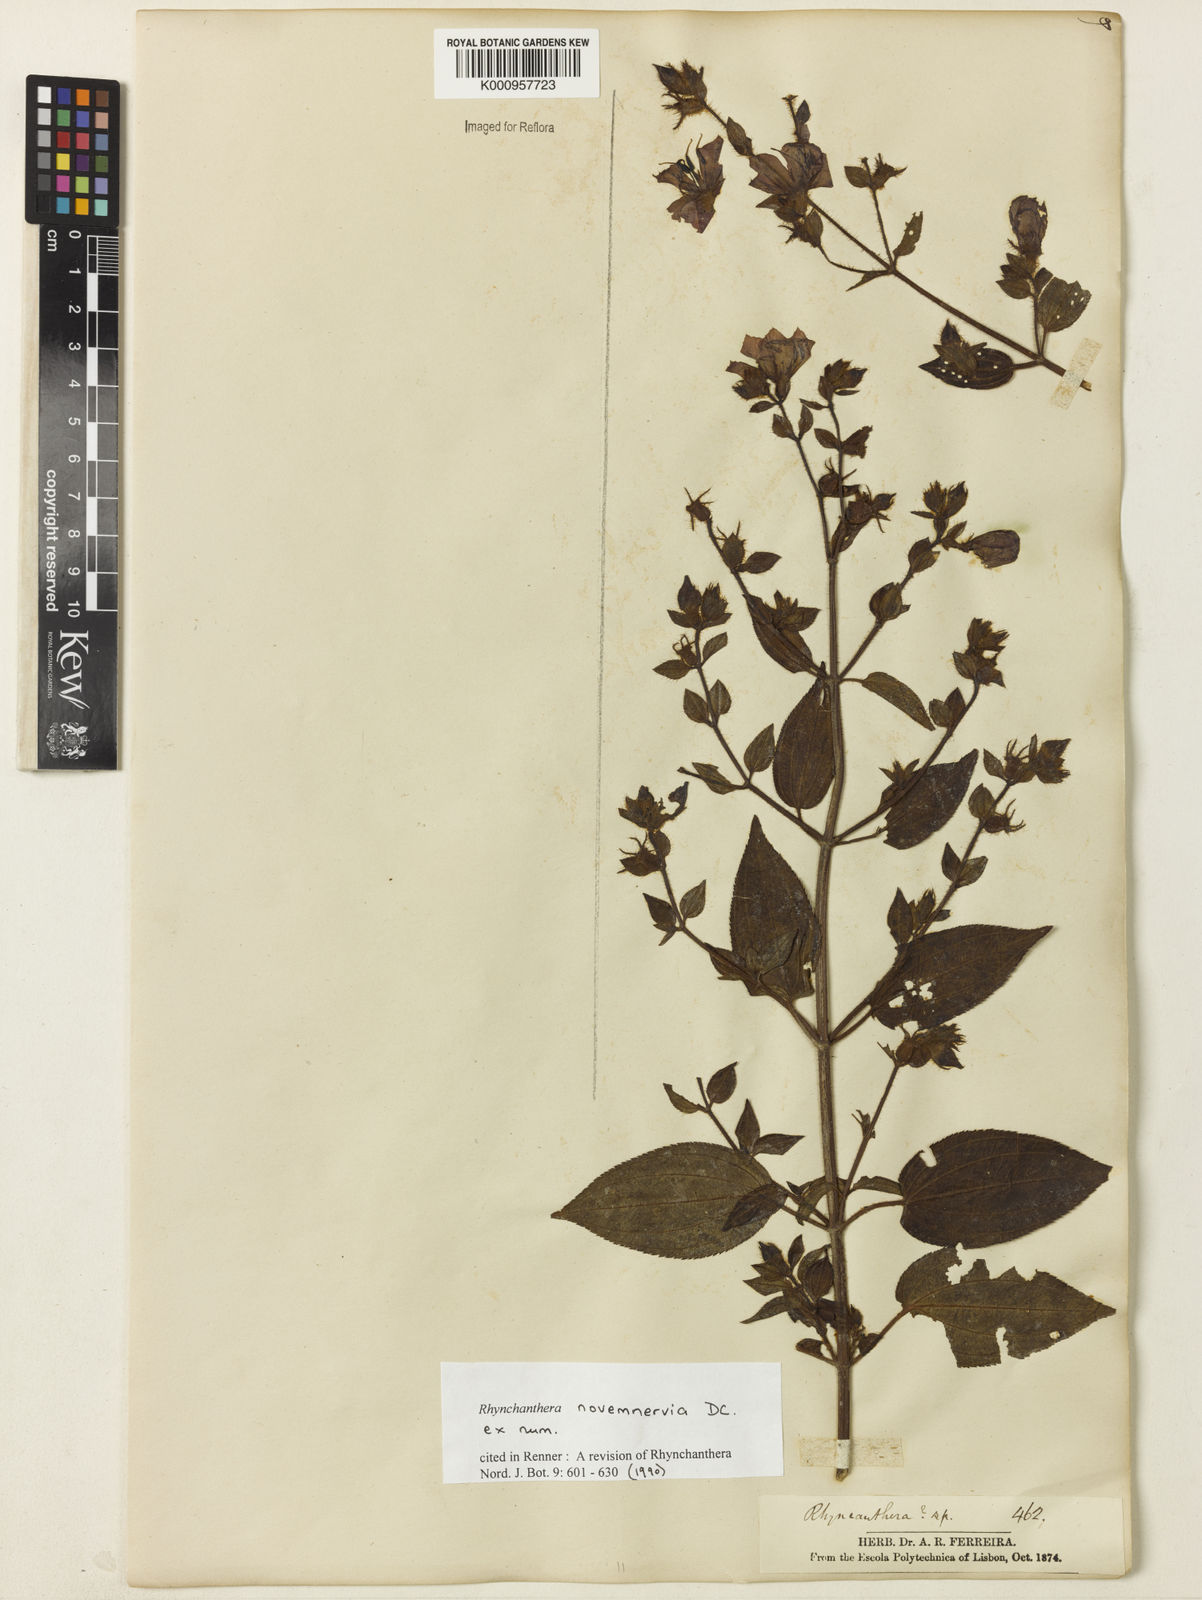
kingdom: Plantae
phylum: Tracheophyta
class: Magnoliopsida
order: Myrtales
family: Melastomataceae
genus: Rhynchanthera
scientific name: Rhynchanthera novemnervia
